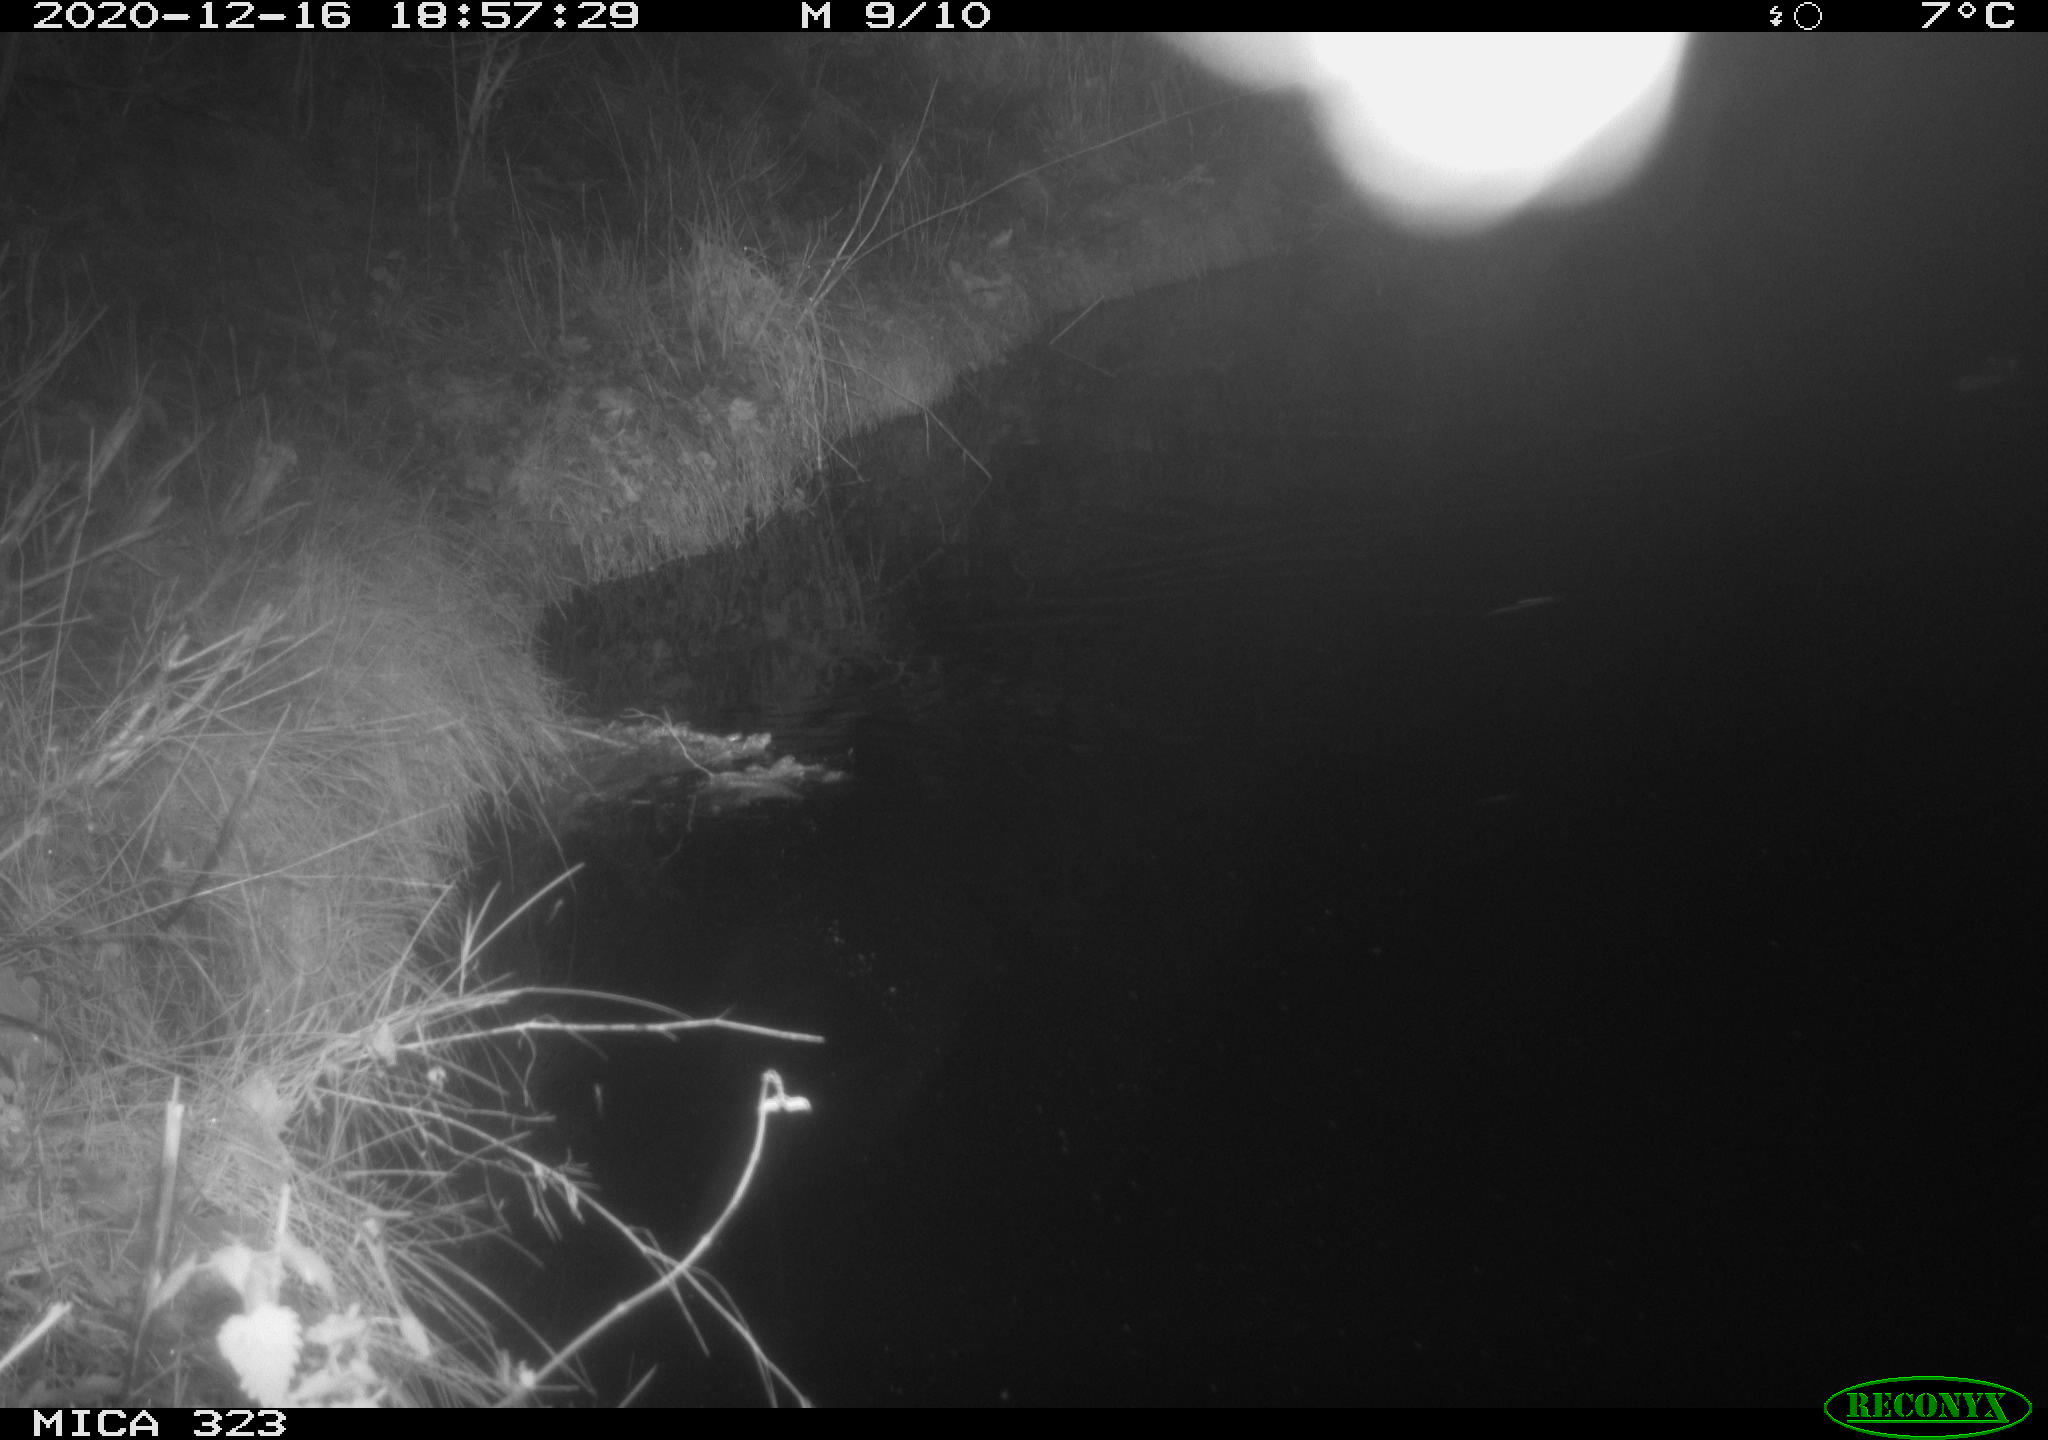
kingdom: Animalia
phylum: Chordata
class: Mammalia
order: Rodentia
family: Muridae
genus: Rattus
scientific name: Rattus norvegicus
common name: Brown rat
